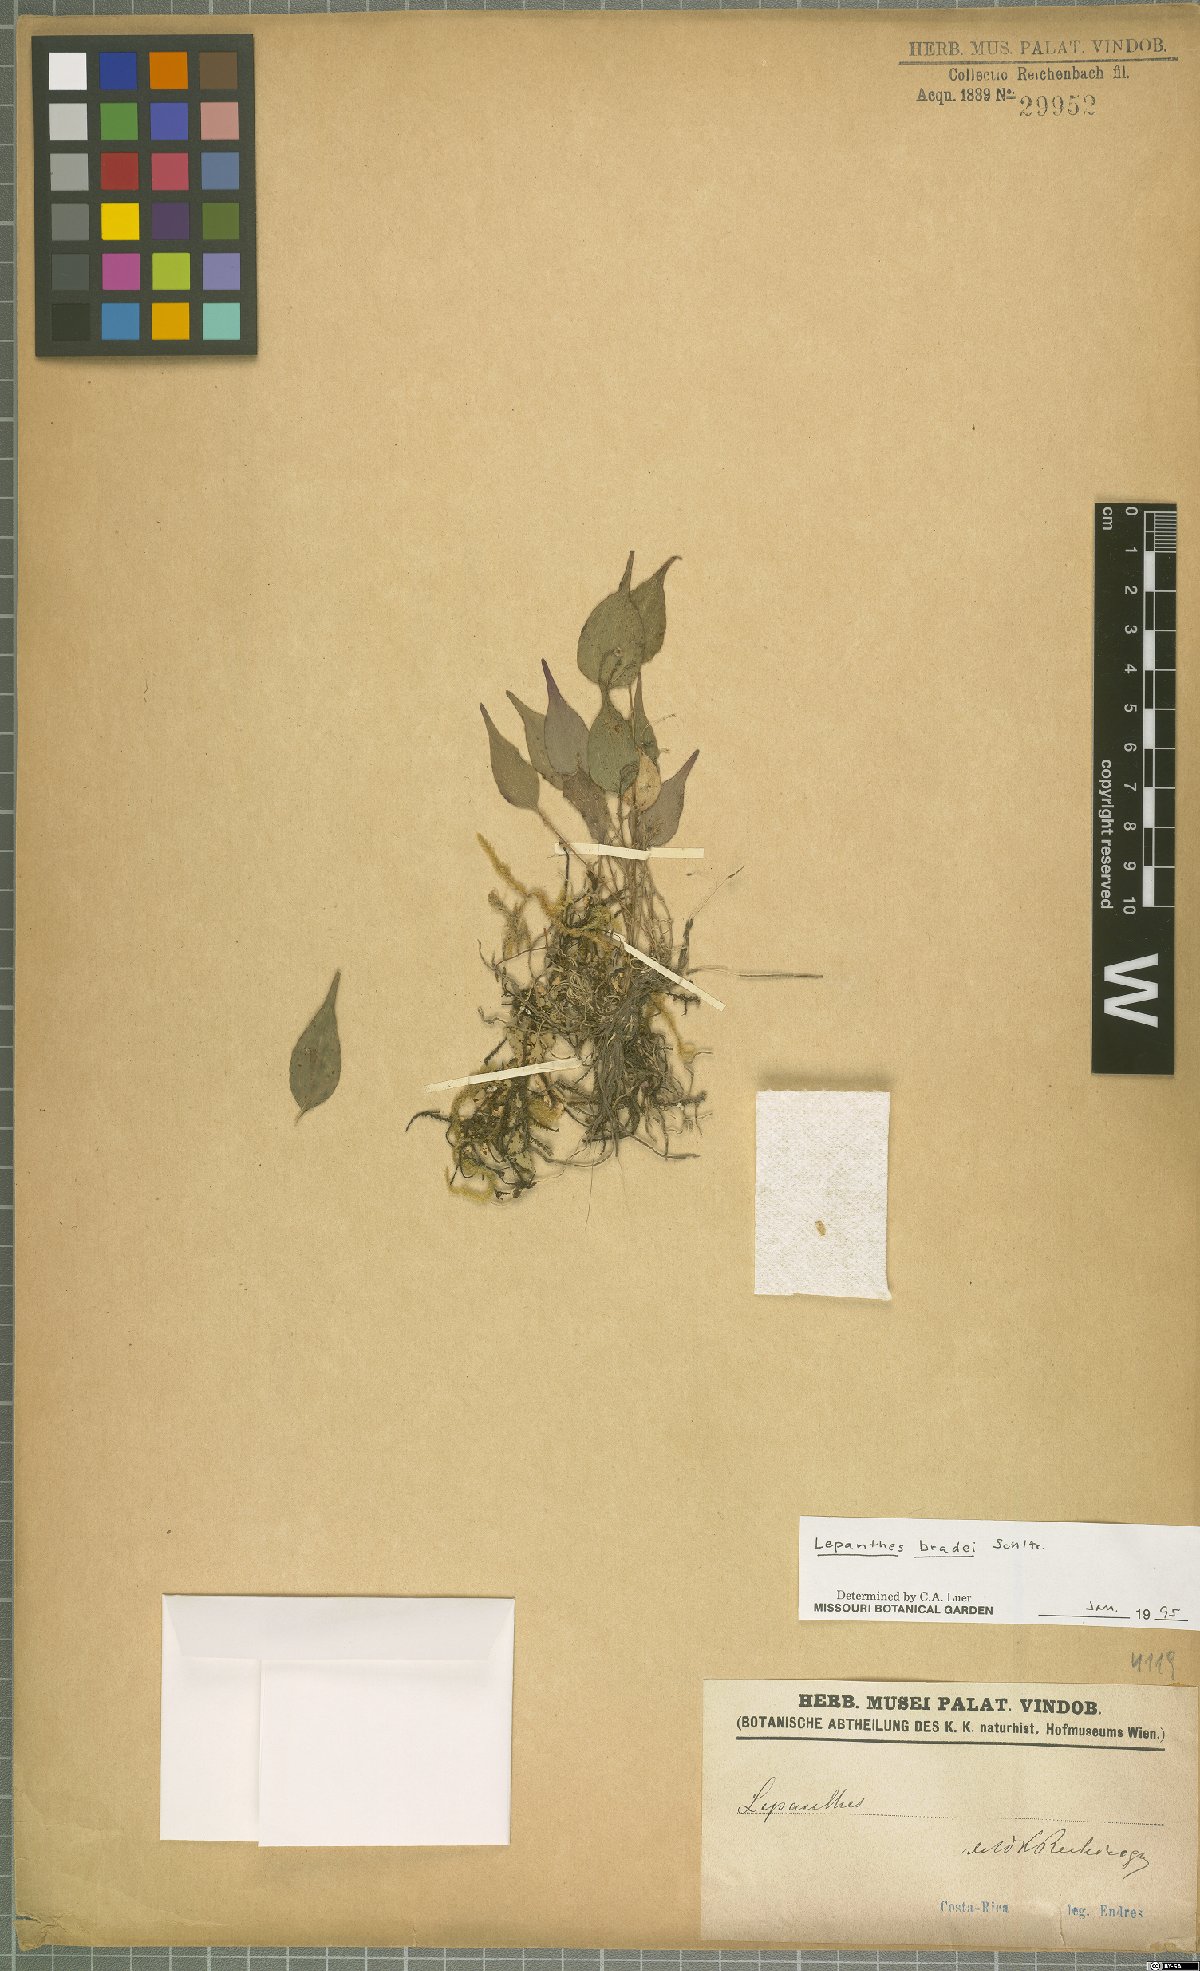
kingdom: Plantae
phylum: Tracheophyta
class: Liliopsida
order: Asparagales
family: Orchidaceae
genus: Lepanthes
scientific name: Lepanthes bradei
